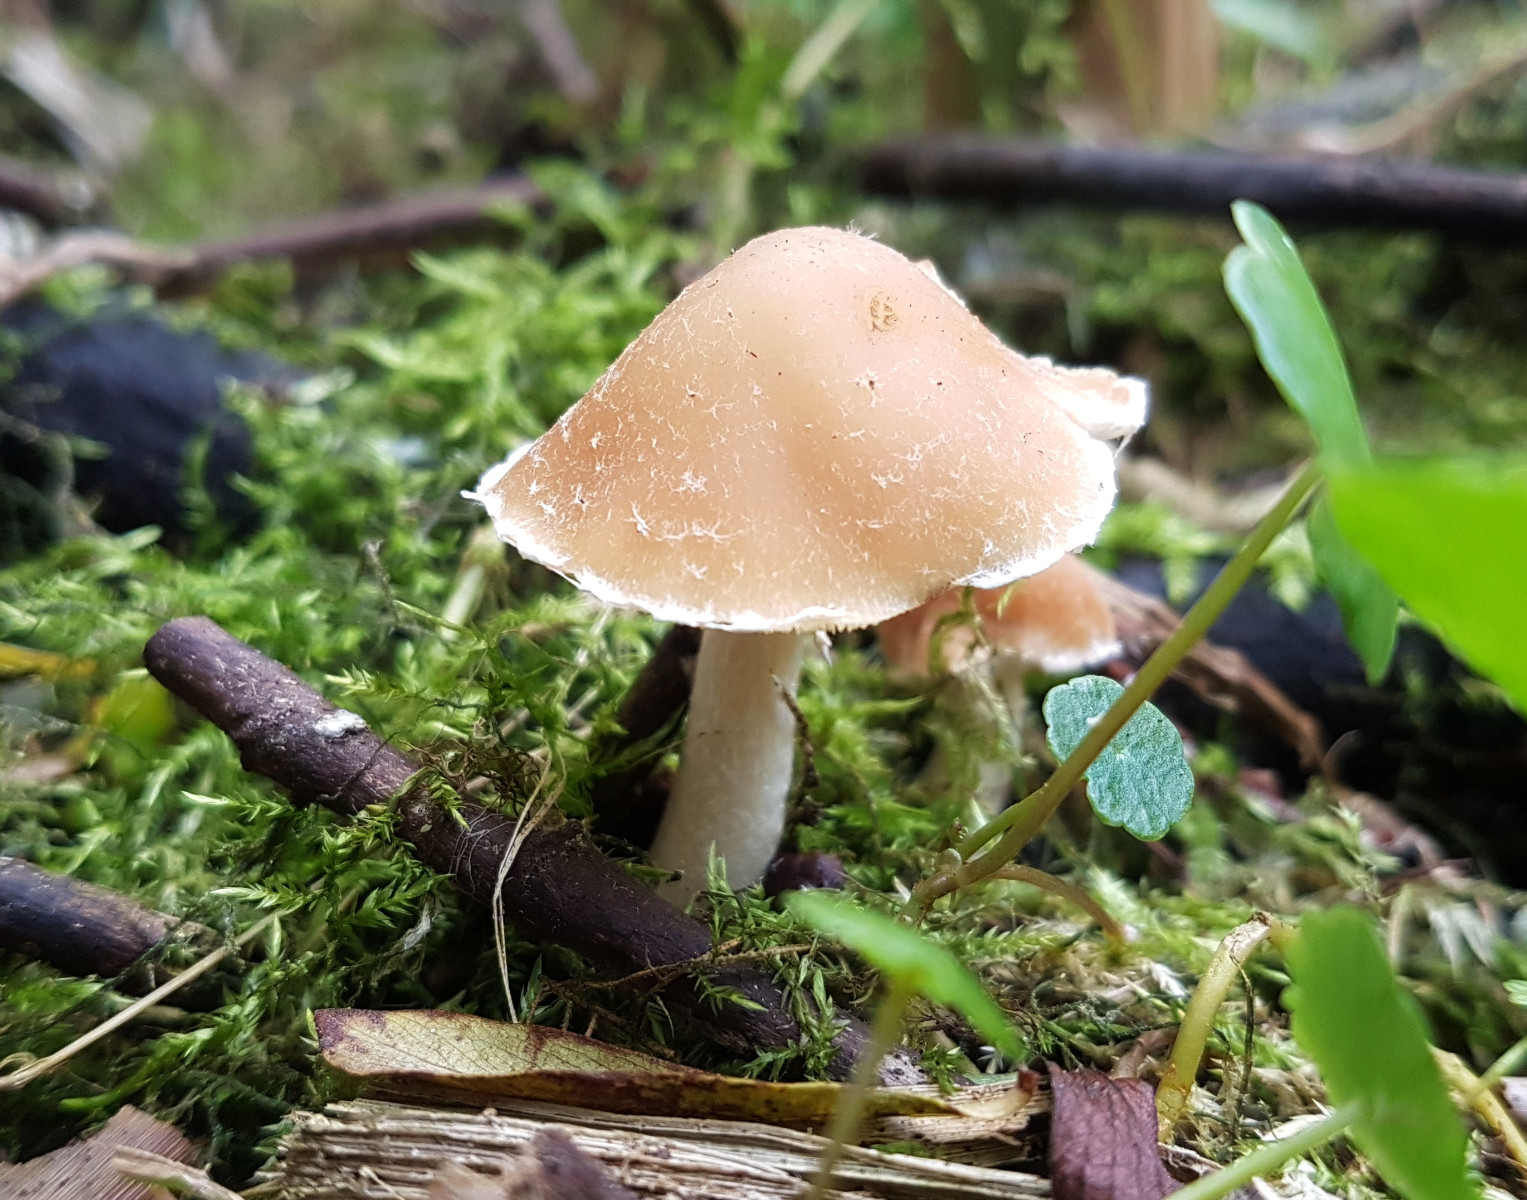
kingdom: Fungi
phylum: Basidiomycota
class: Agaricomycetes
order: Agaricales
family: Psathyrellaceae
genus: Candolleomyces
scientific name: Candolleomyces candolleanus
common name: Candolles mørkhat
